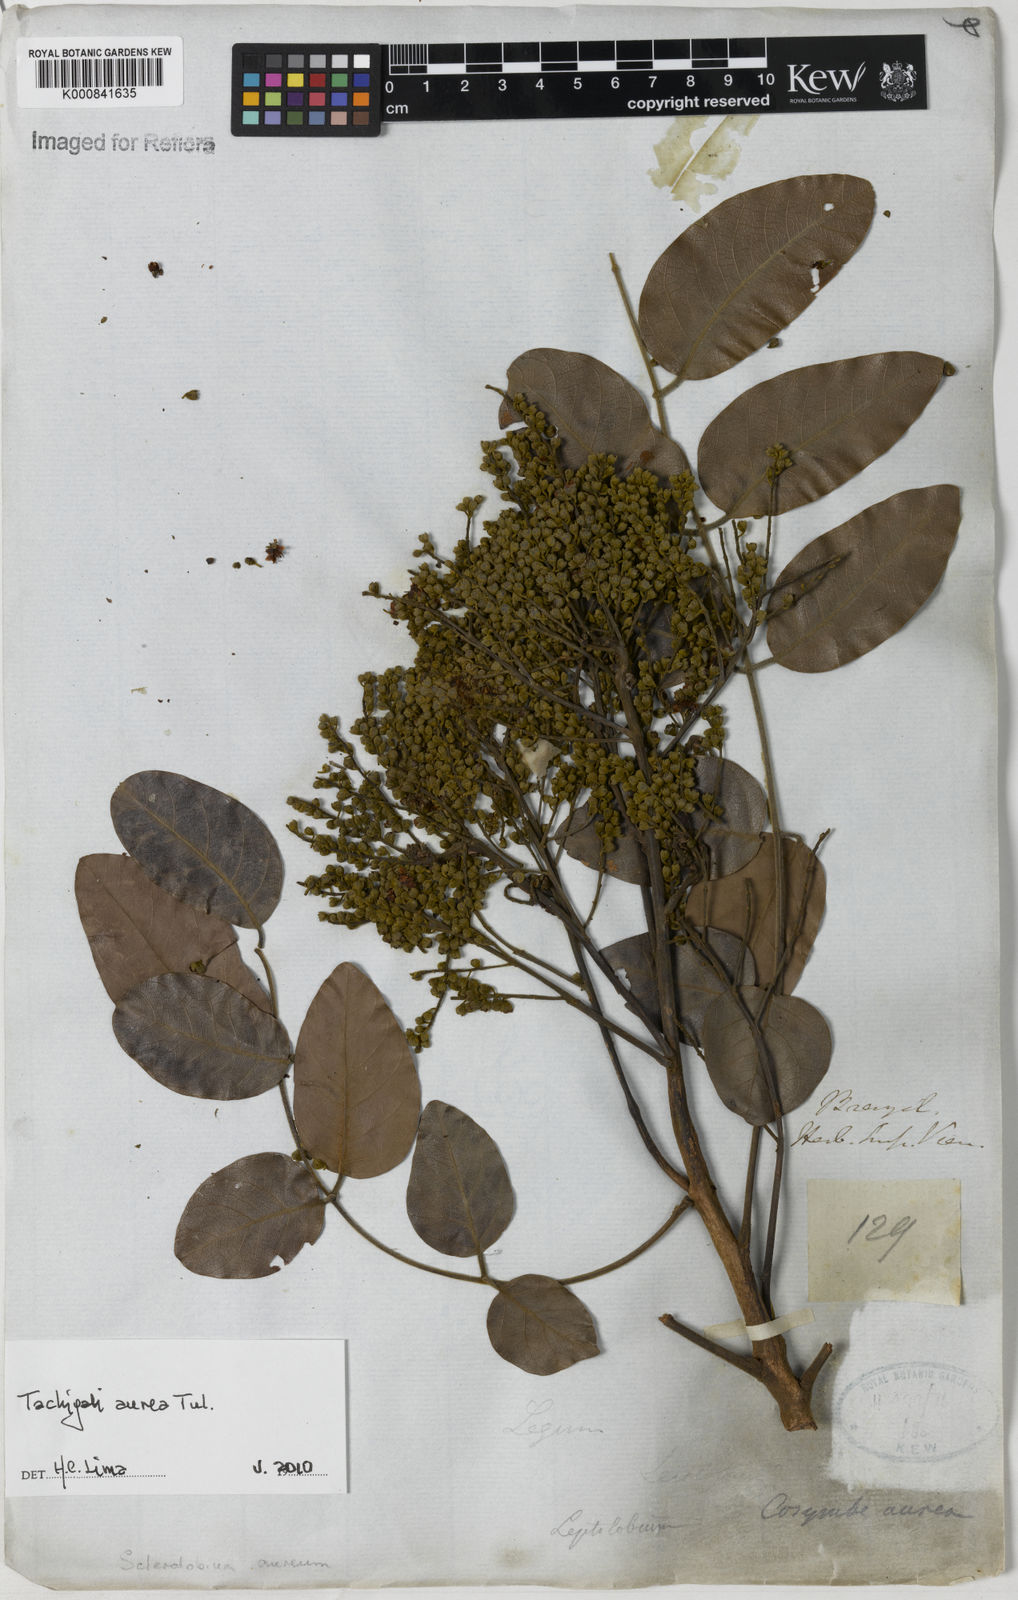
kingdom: Plantae
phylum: Tracheophyta
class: Magnoliopsida
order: Fabales
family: Fabaceae
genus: Tachigali
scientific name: Tachigali aurea
